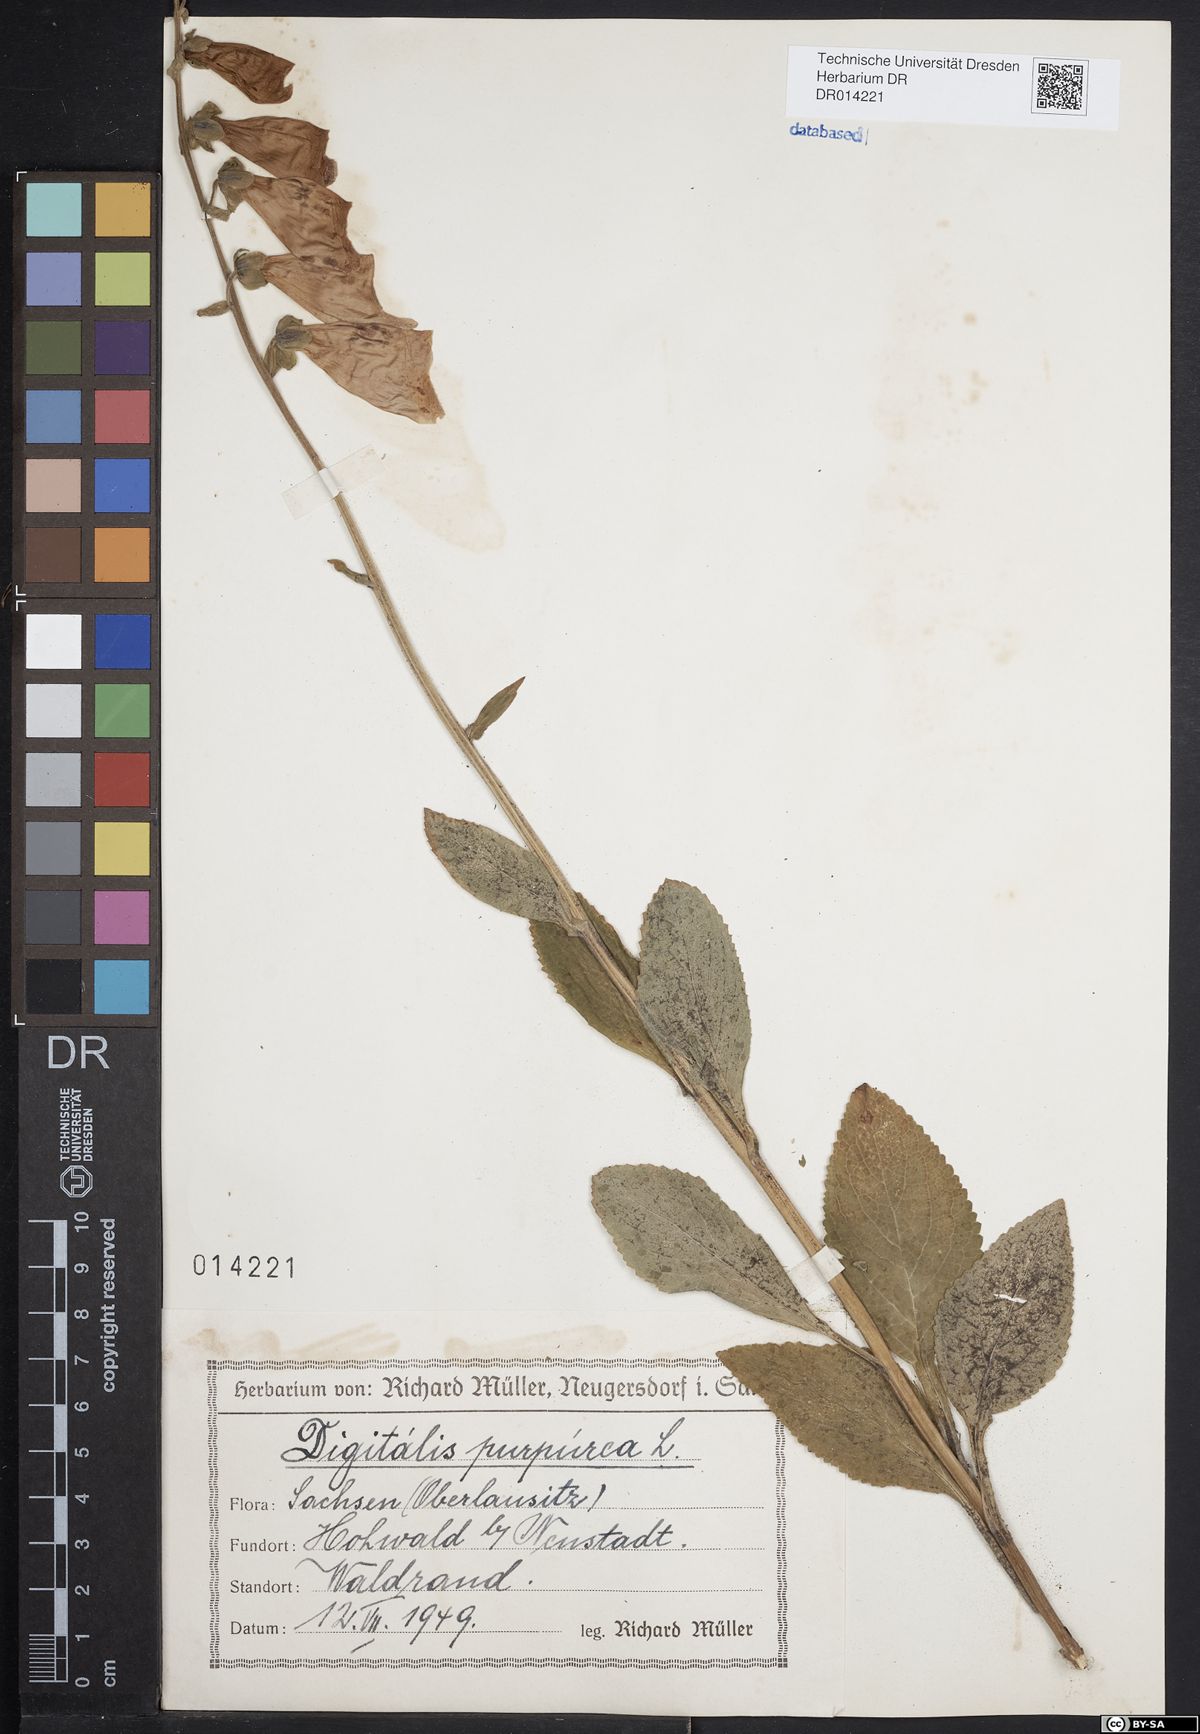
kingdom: Plantae
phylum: Tracheophyta
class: Magnoliopsida
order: Lamiales
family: Plantaginaceae
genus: Digitalis
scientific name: Digitalis purpurea
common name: Foxglove
